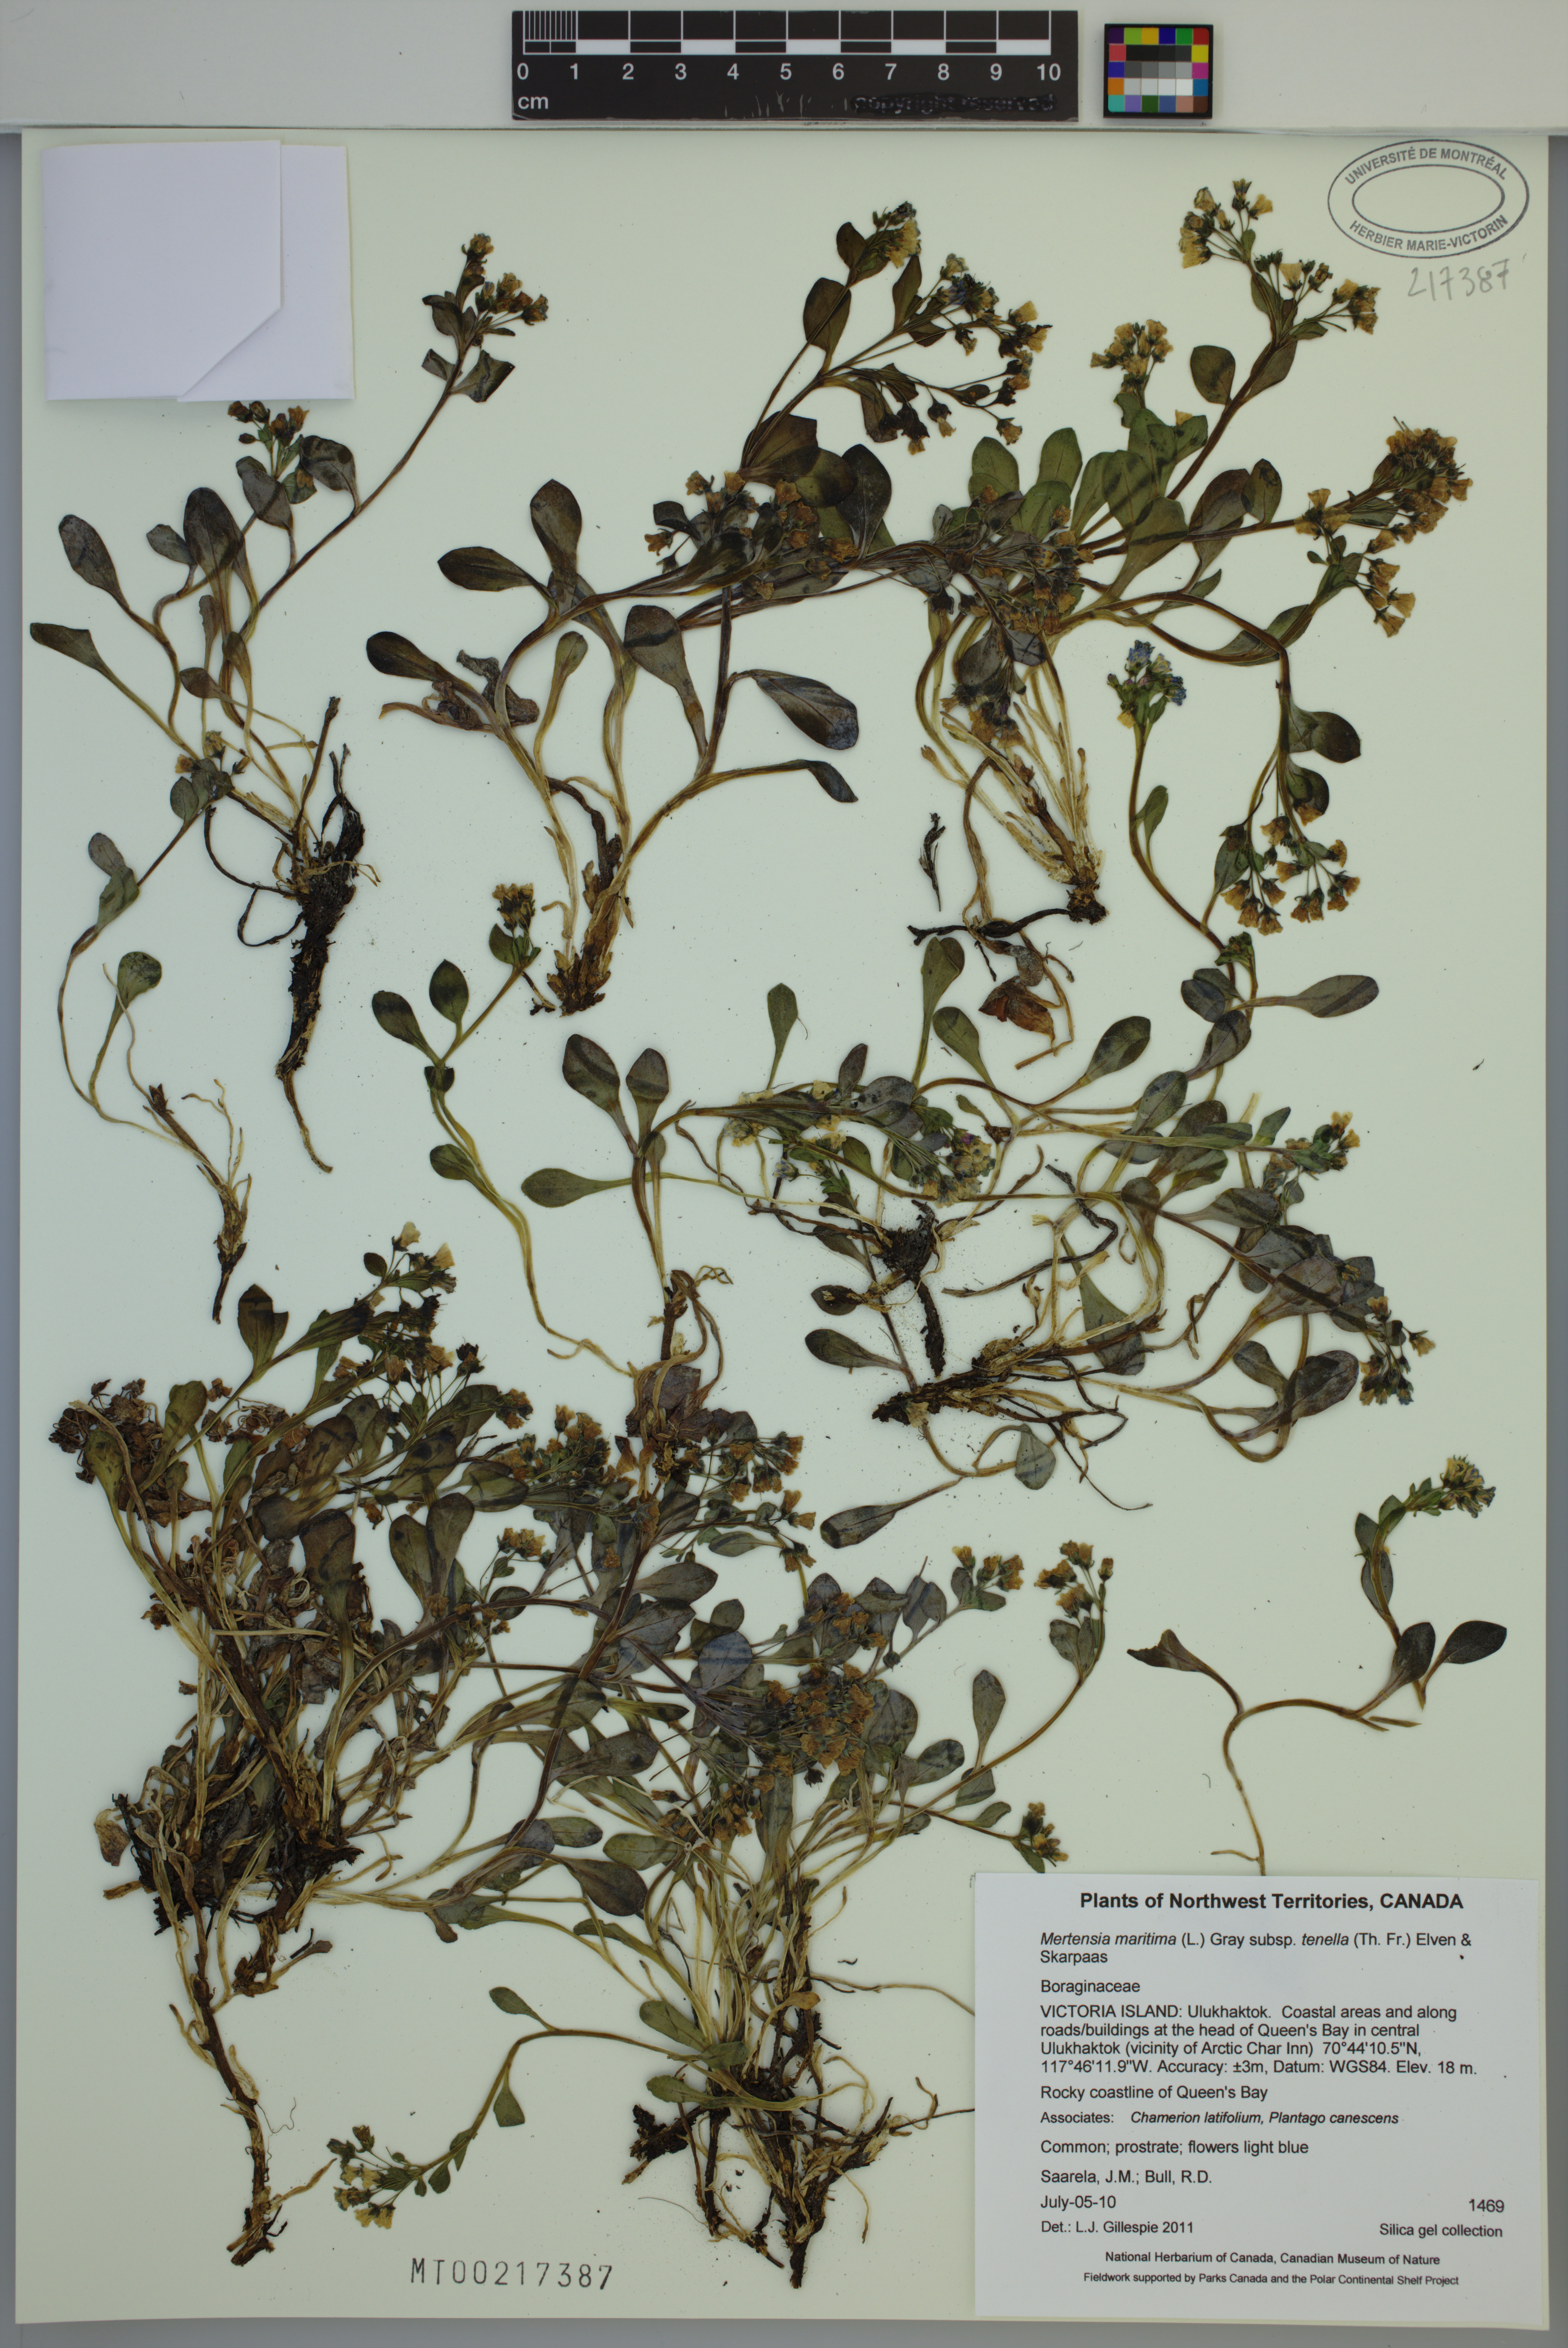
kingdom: Plantae
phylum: Tracheophyta
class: Magnoliopsida
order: Boraginales
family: Boraginaceae
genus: Mertensia
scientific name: Mertensia maritima
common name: Oysterplant
